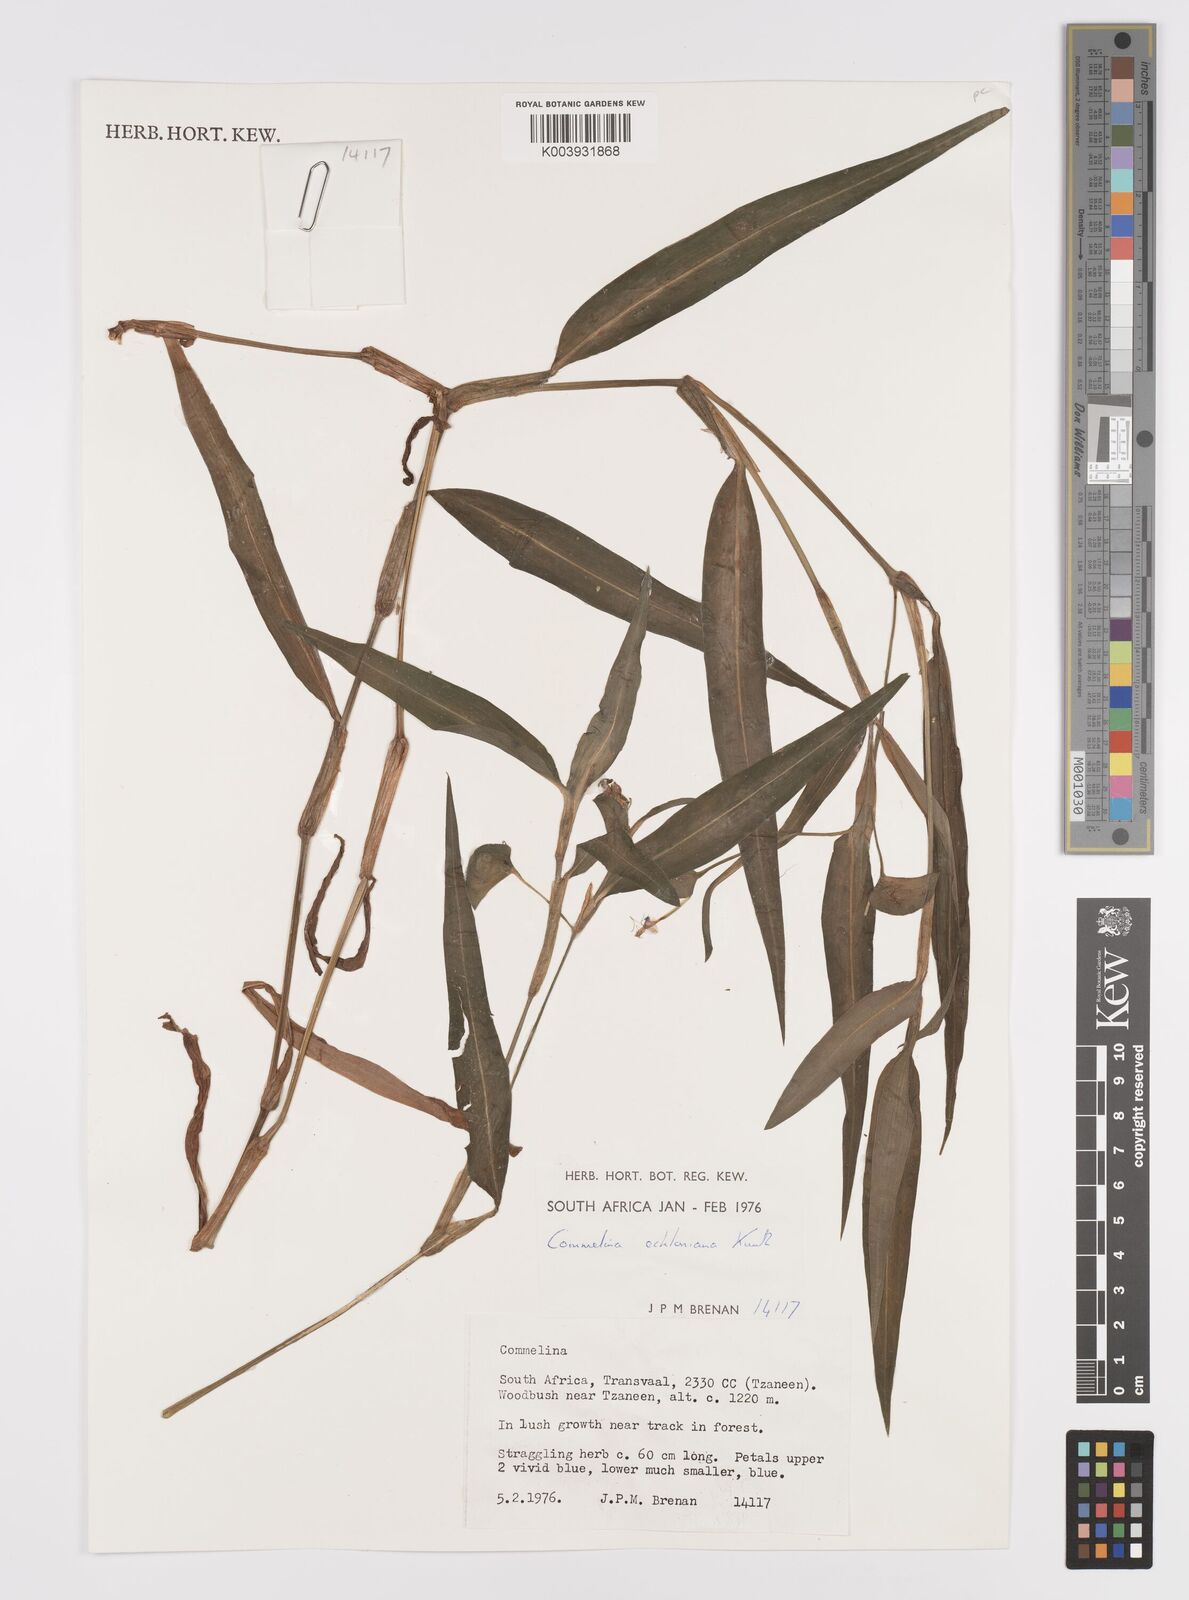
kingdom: Plantae
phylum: Tracheophyta
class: Liliopsida
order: Commelinales
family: Commelinaceae
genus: Commelina
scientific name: Commelina eckloniana
